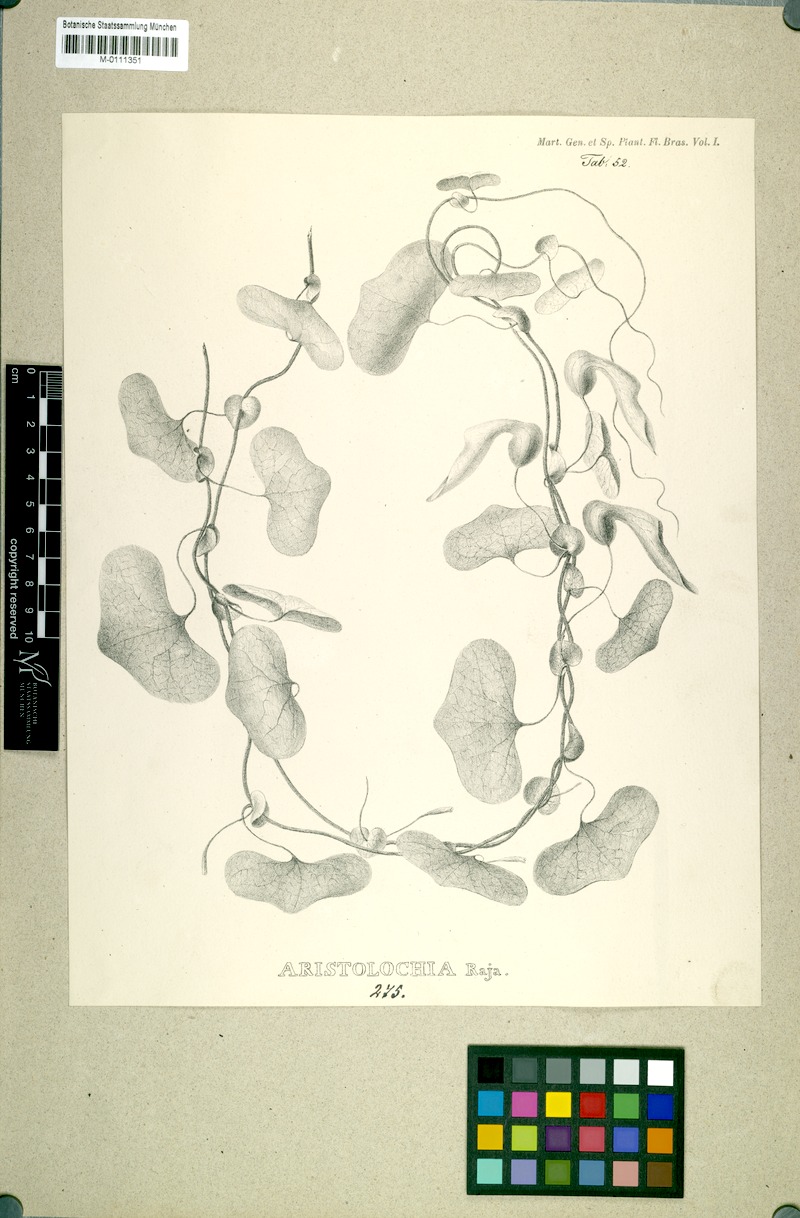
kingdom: Plantae
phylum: Tracheophyta
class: Magnoliopsida
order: Piperales
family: Aristolochiaceae
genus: Aristolochia
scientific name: Aristolochia raja
